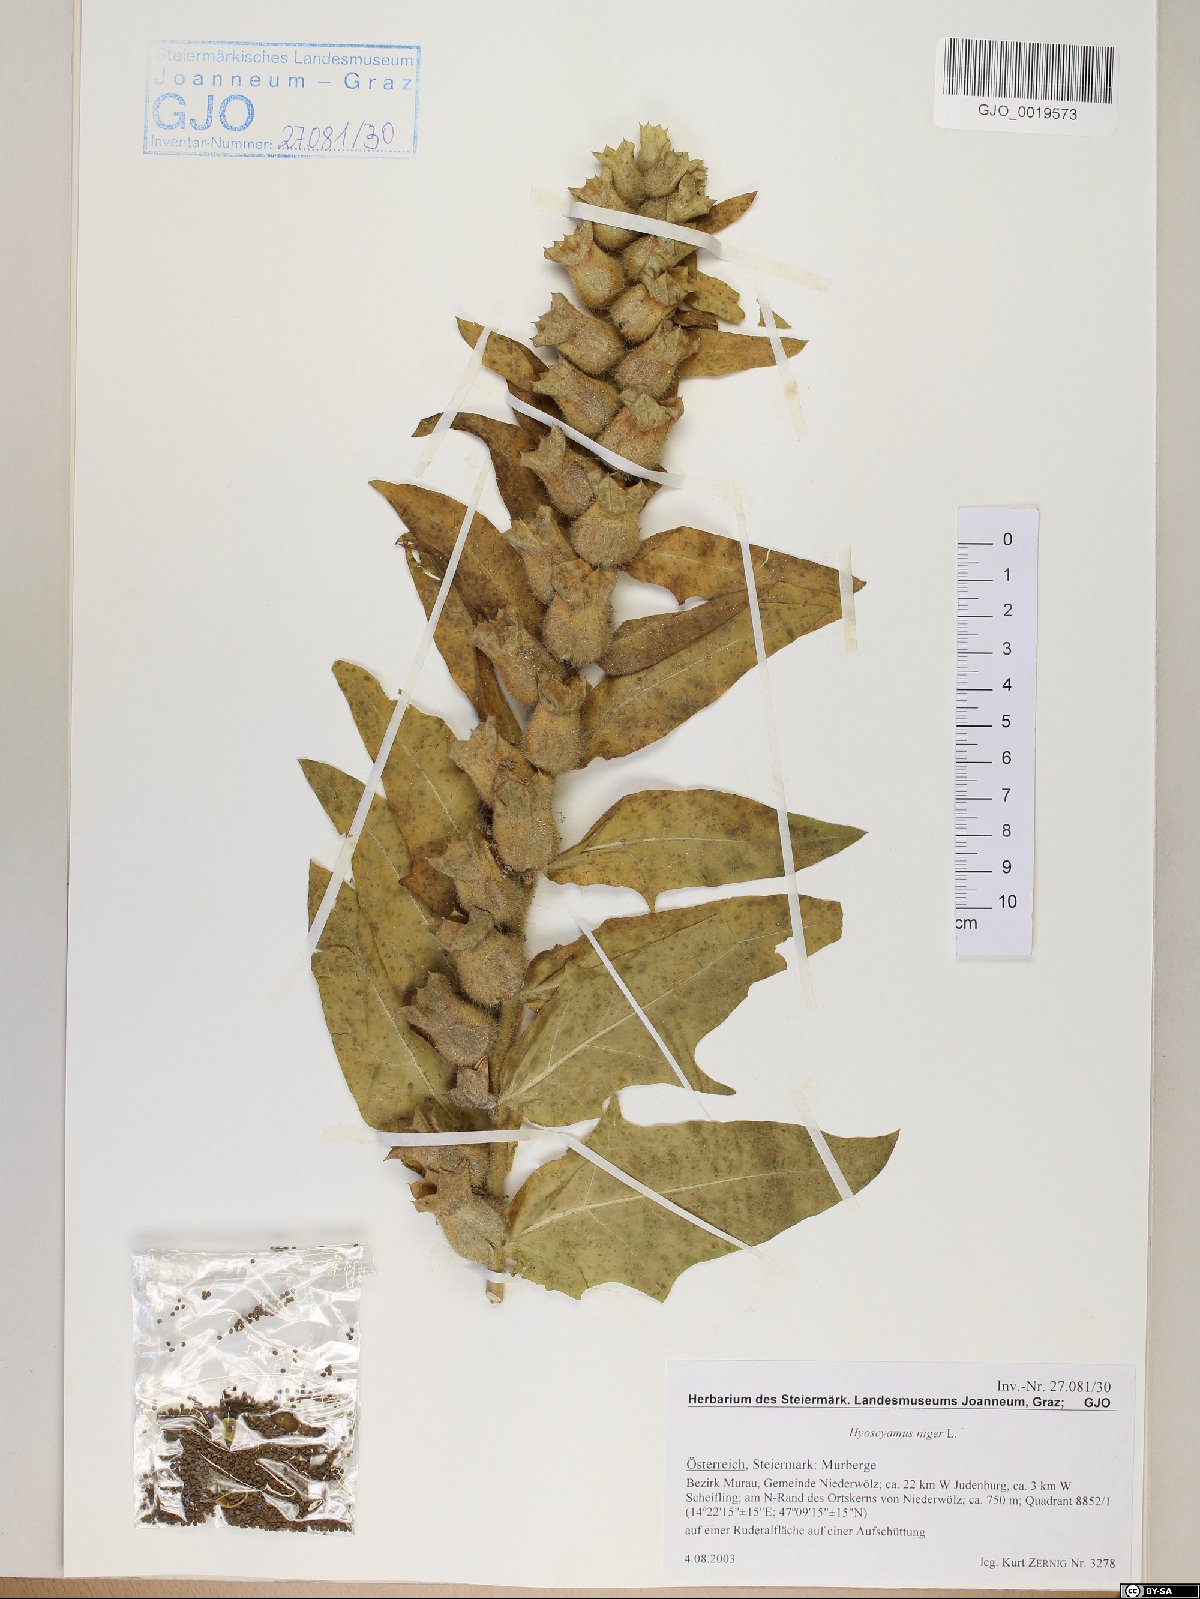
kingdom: Plantae
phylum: Tracheophyta
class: Magnoliopsida
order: Solanales
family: Solanaceae
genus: Hyoscyamus
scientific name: Hyoscyamus niger
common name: Henbane
